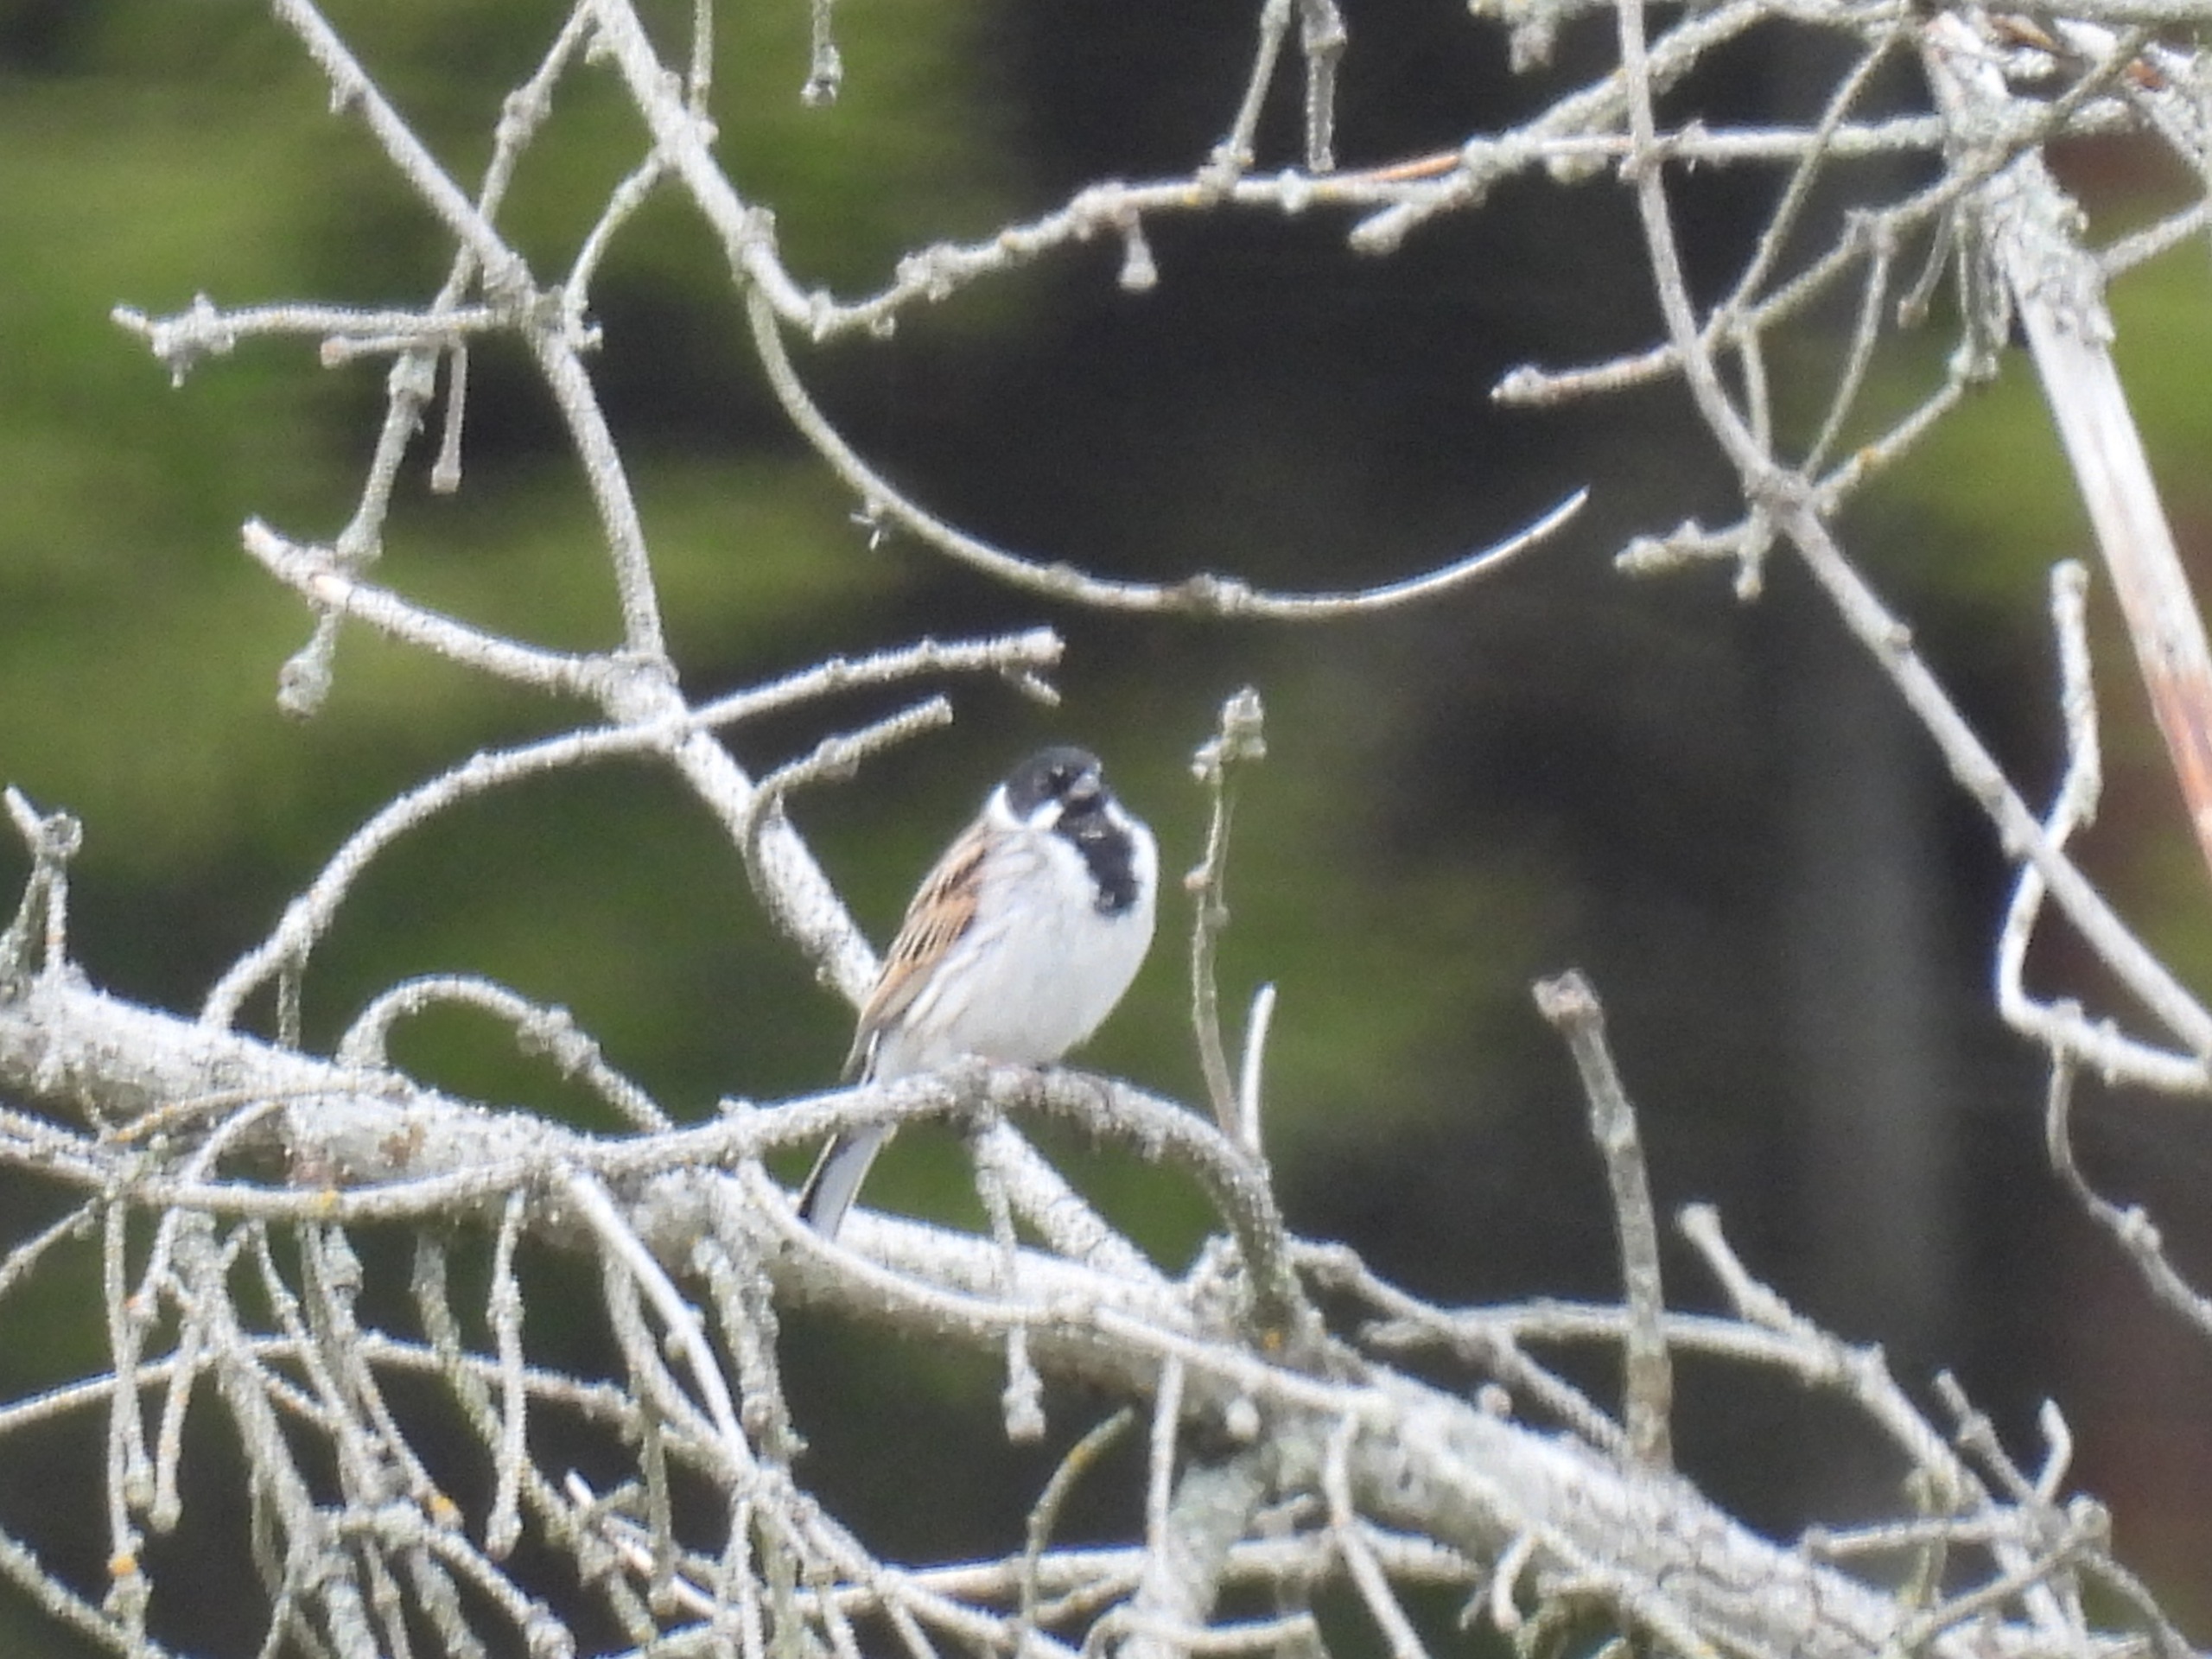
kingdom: Animalia
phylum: Chordata
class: Aves
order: Passeriformes
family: Emberizidae
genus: Emberiza
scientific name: Emberiza schoeniclus
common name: Rørspurv
